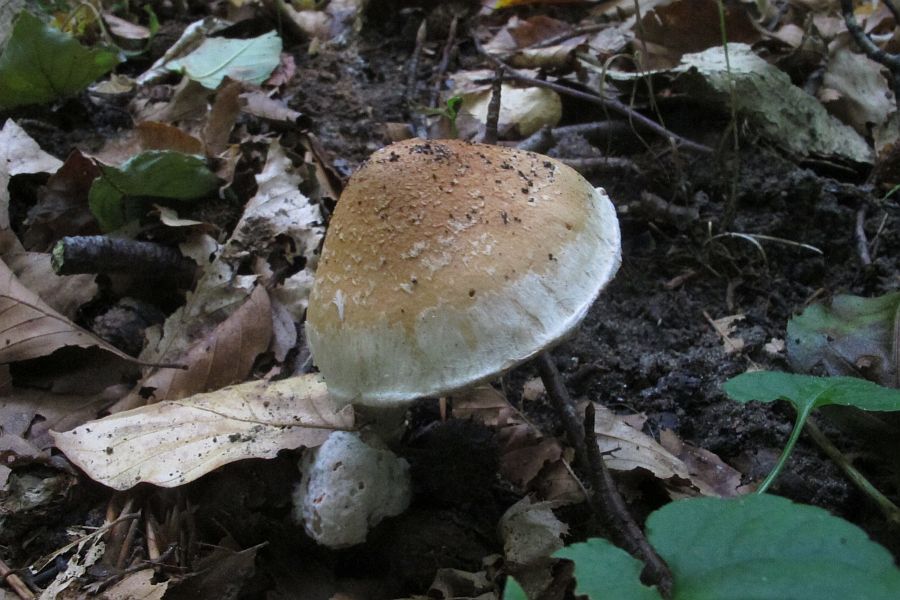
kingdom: Fungi
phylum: Basidiomycota
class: Agaricomycetes
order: Agaricales
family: Cortinariaceae
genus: Phlegmacium
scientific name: Phlegmacium vulpinum
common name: ringbæltet slørhat
